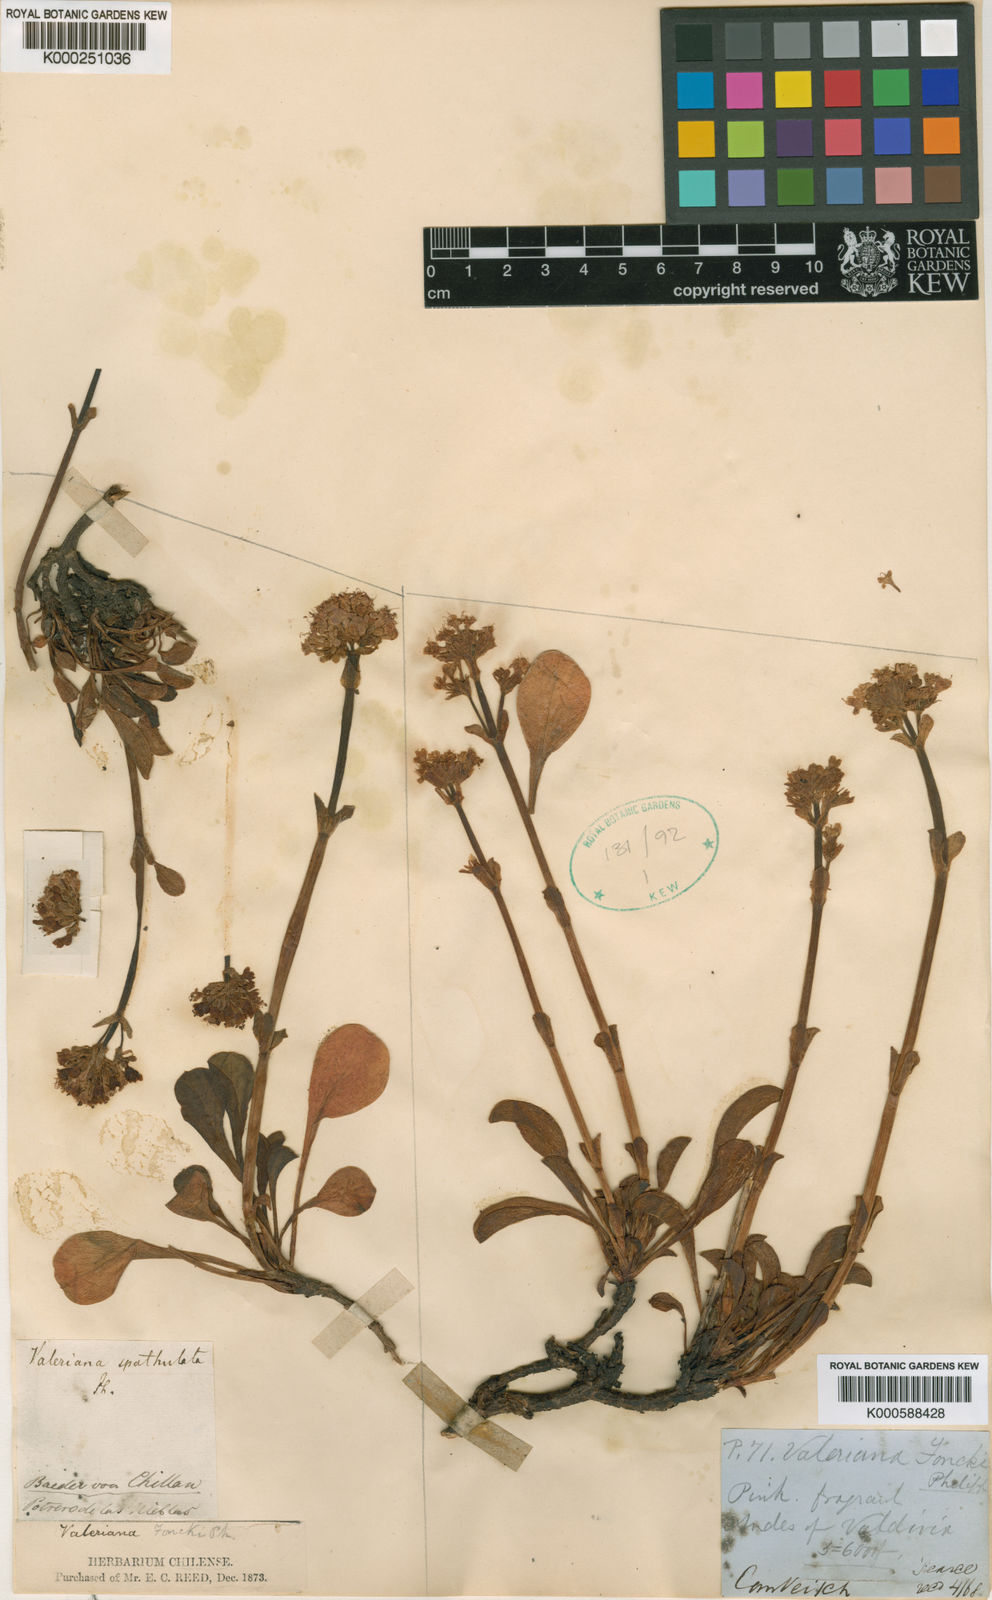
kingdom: Plantae
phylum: Tracheophyta
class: Magnoliopsida
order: Dipsacales
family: Caprifoliaceae
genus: Valeriana
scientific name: Valeriana
